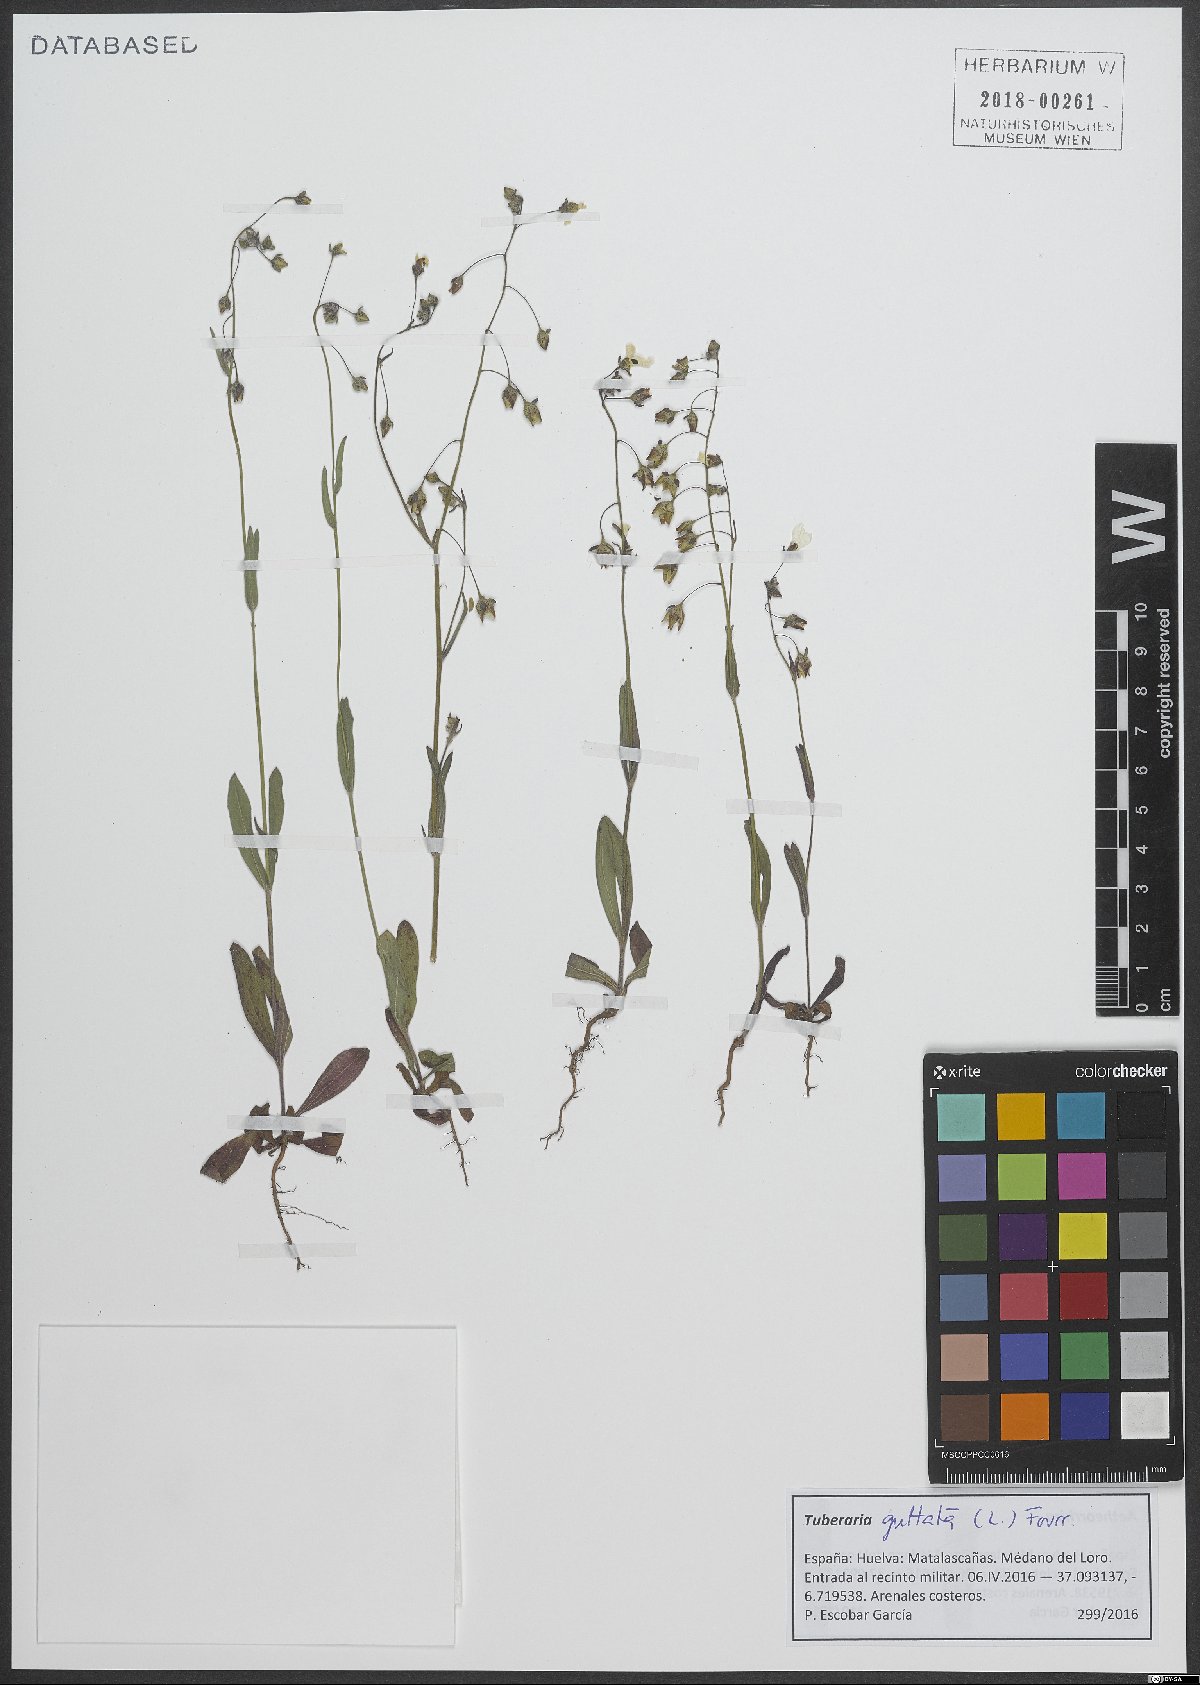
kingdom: Plantae
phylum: Tracheophyta
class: Magnoliopsida
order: Malvales
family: Cistaceae
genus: Tuberaria
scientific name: Tuberaria guttata
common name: Spotted rock-rose
